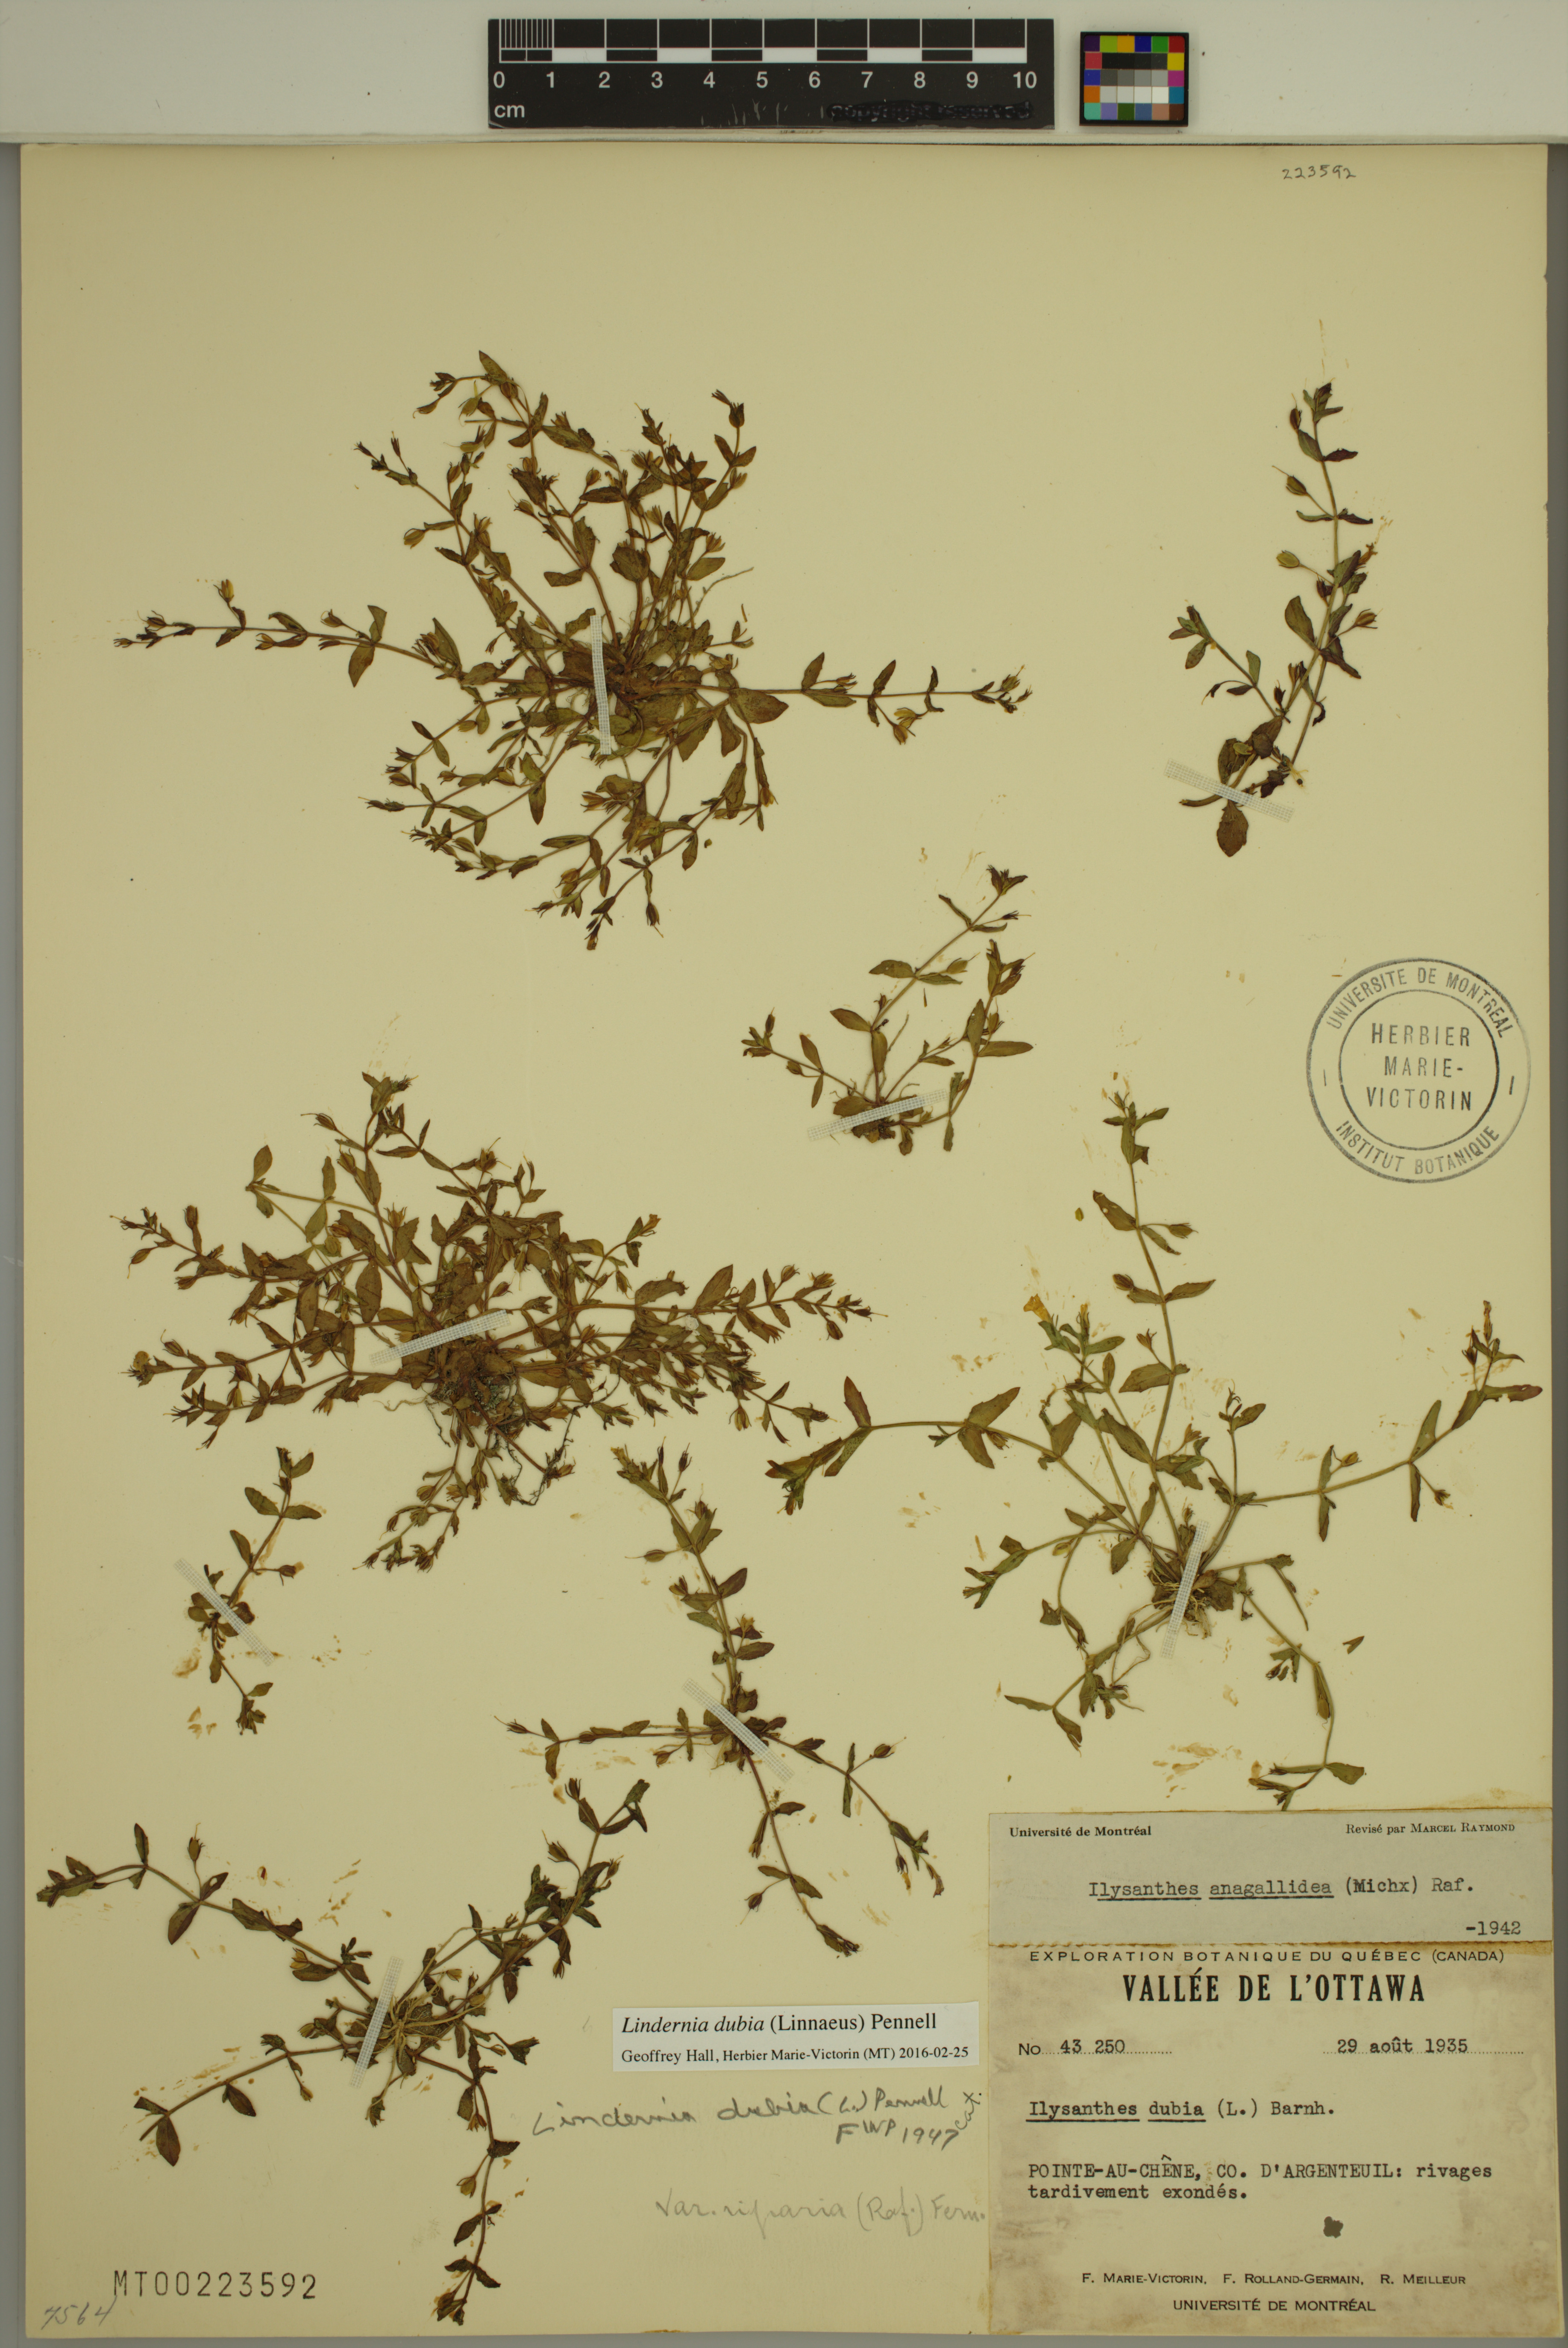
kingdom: Plantae
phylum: Tracheophyta
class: Magnoliopsida
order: Lamiales
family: Linderniaceae
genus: Lindernia
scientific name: Lindernia dubia
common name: Annual false pimpernel
